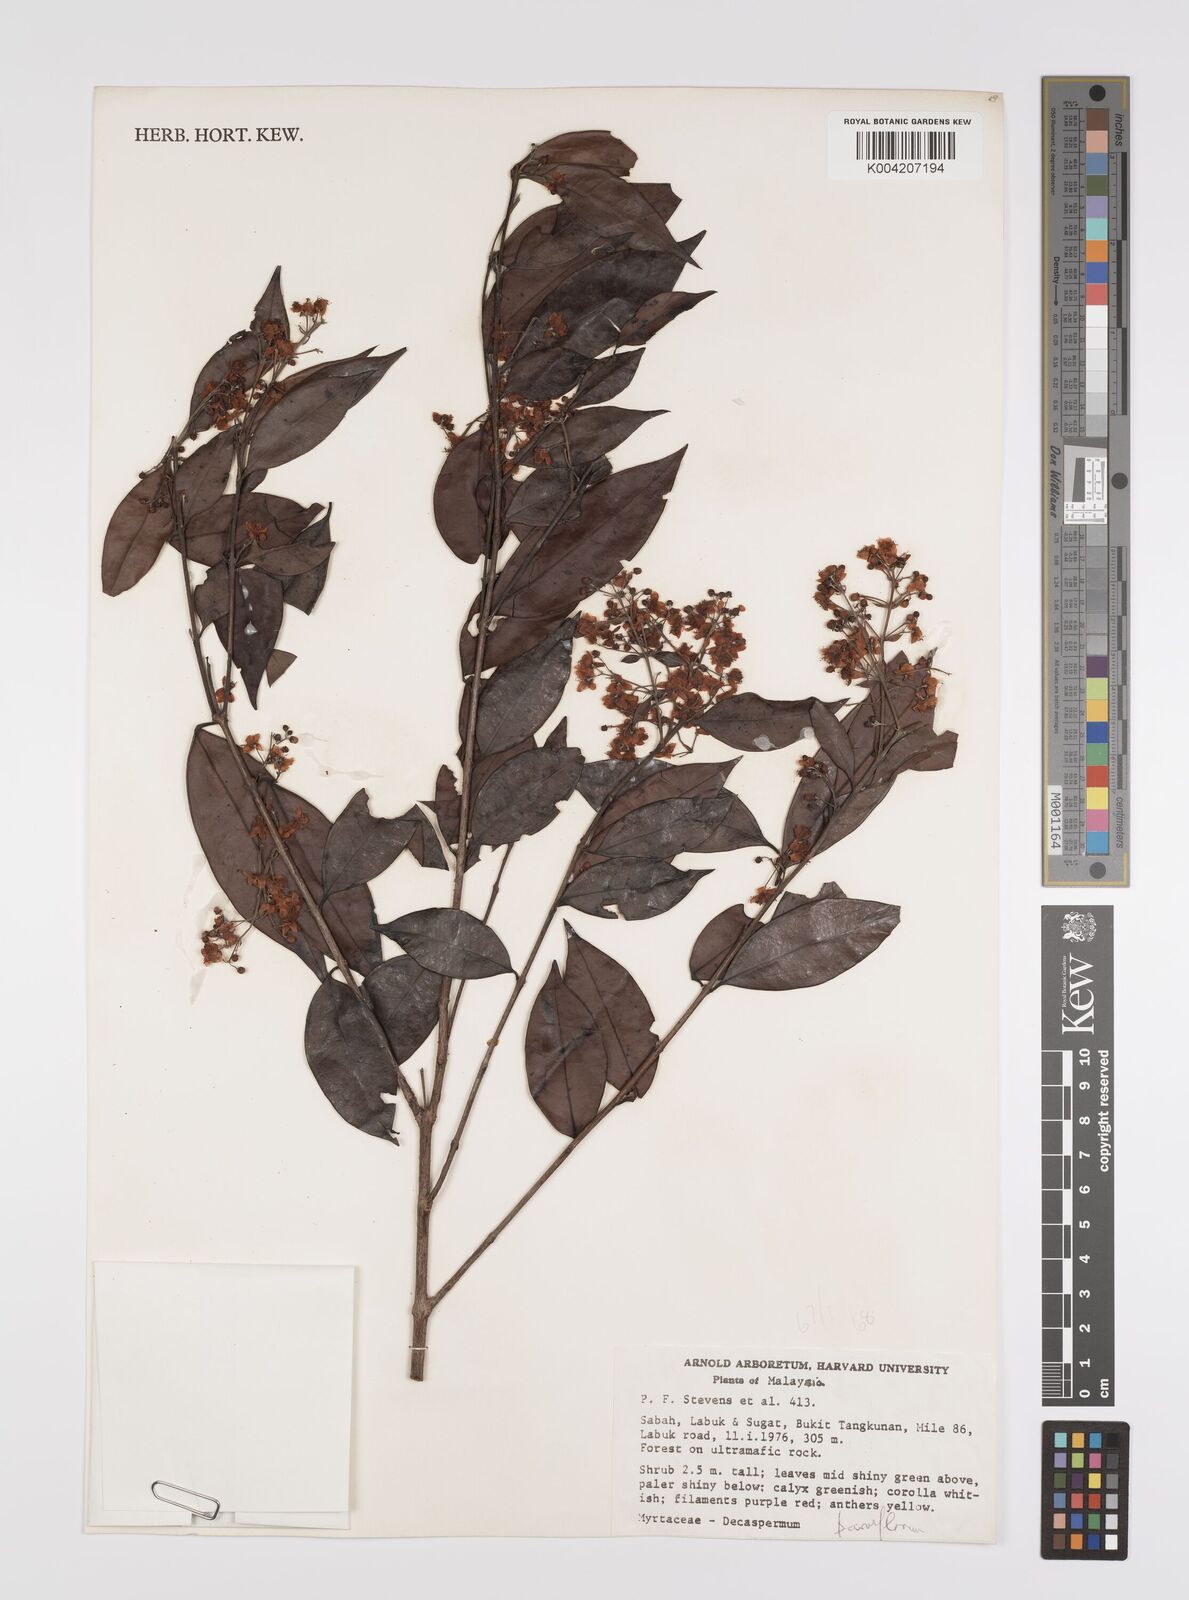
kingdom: Plantae
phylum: Tracheophyta
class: Magnoliopsida
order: Myrtales
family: Myrtaceae
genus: Decaspermum
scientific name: Decaspermum parviflorum
